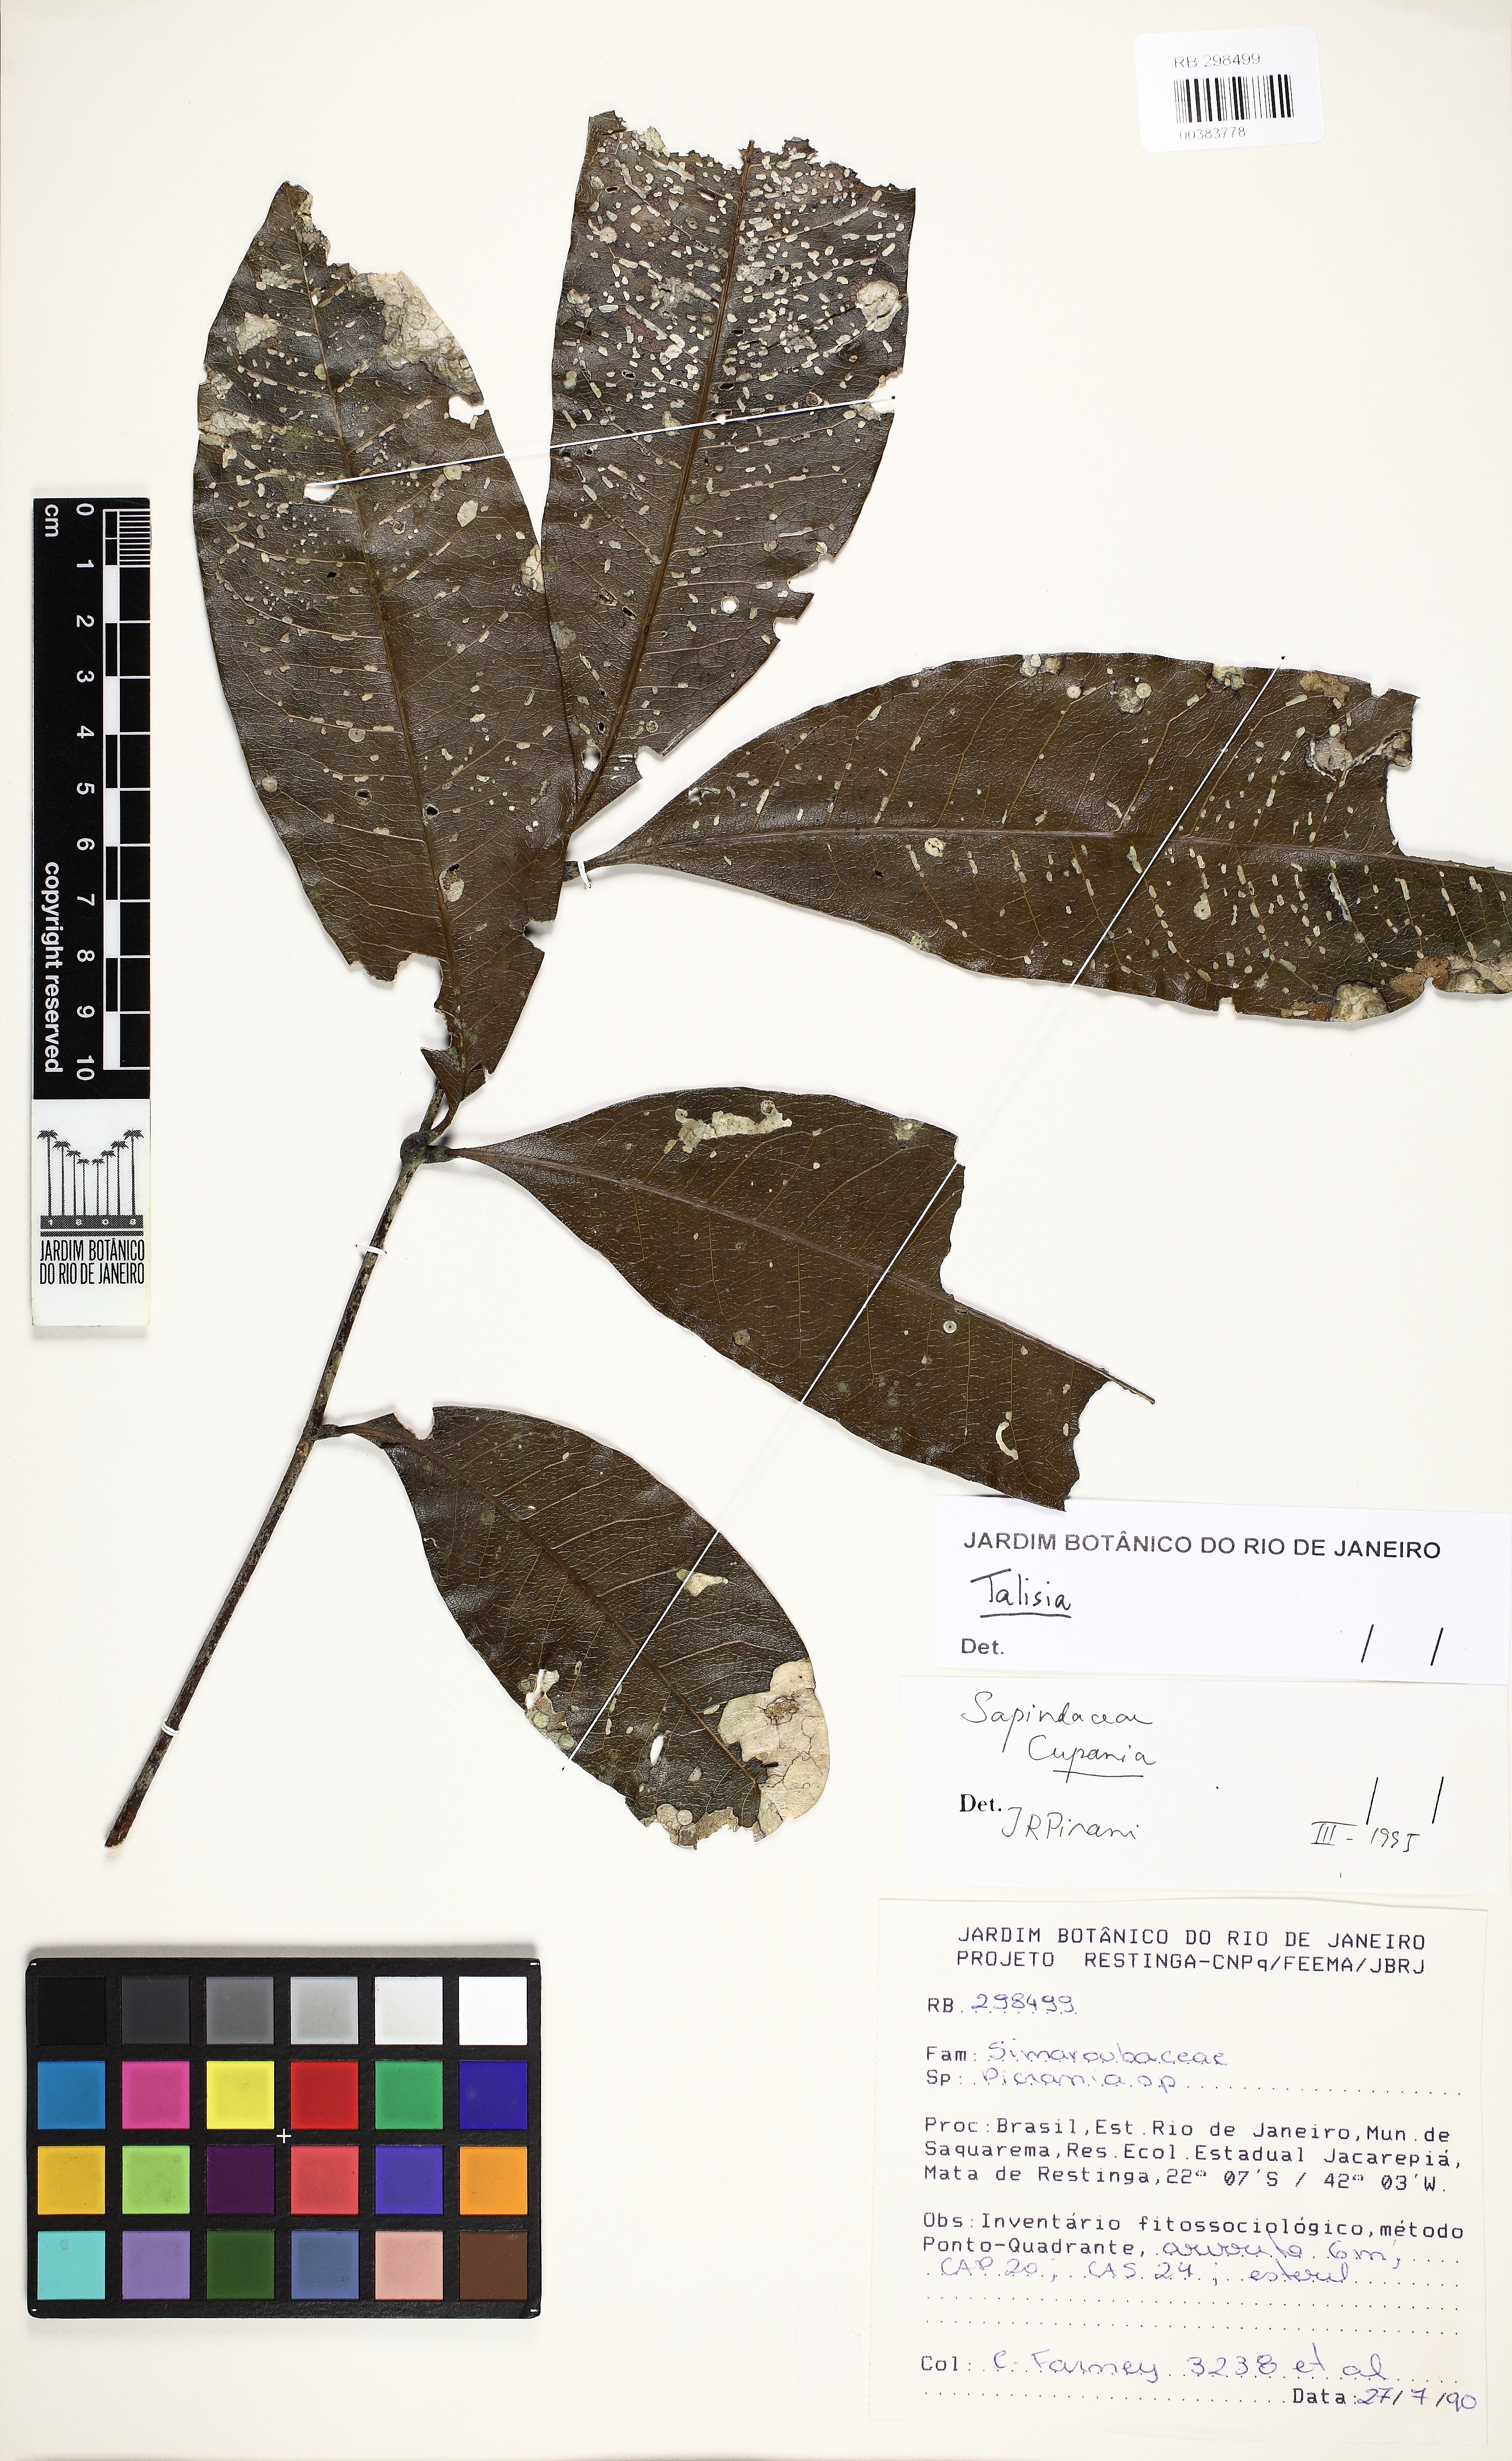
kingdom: Plantae
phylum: Tracheophyta
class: Magnoliopsida
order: Sapindales
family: Sapindaceae
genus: Talisia
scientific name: Talisia cupularis
